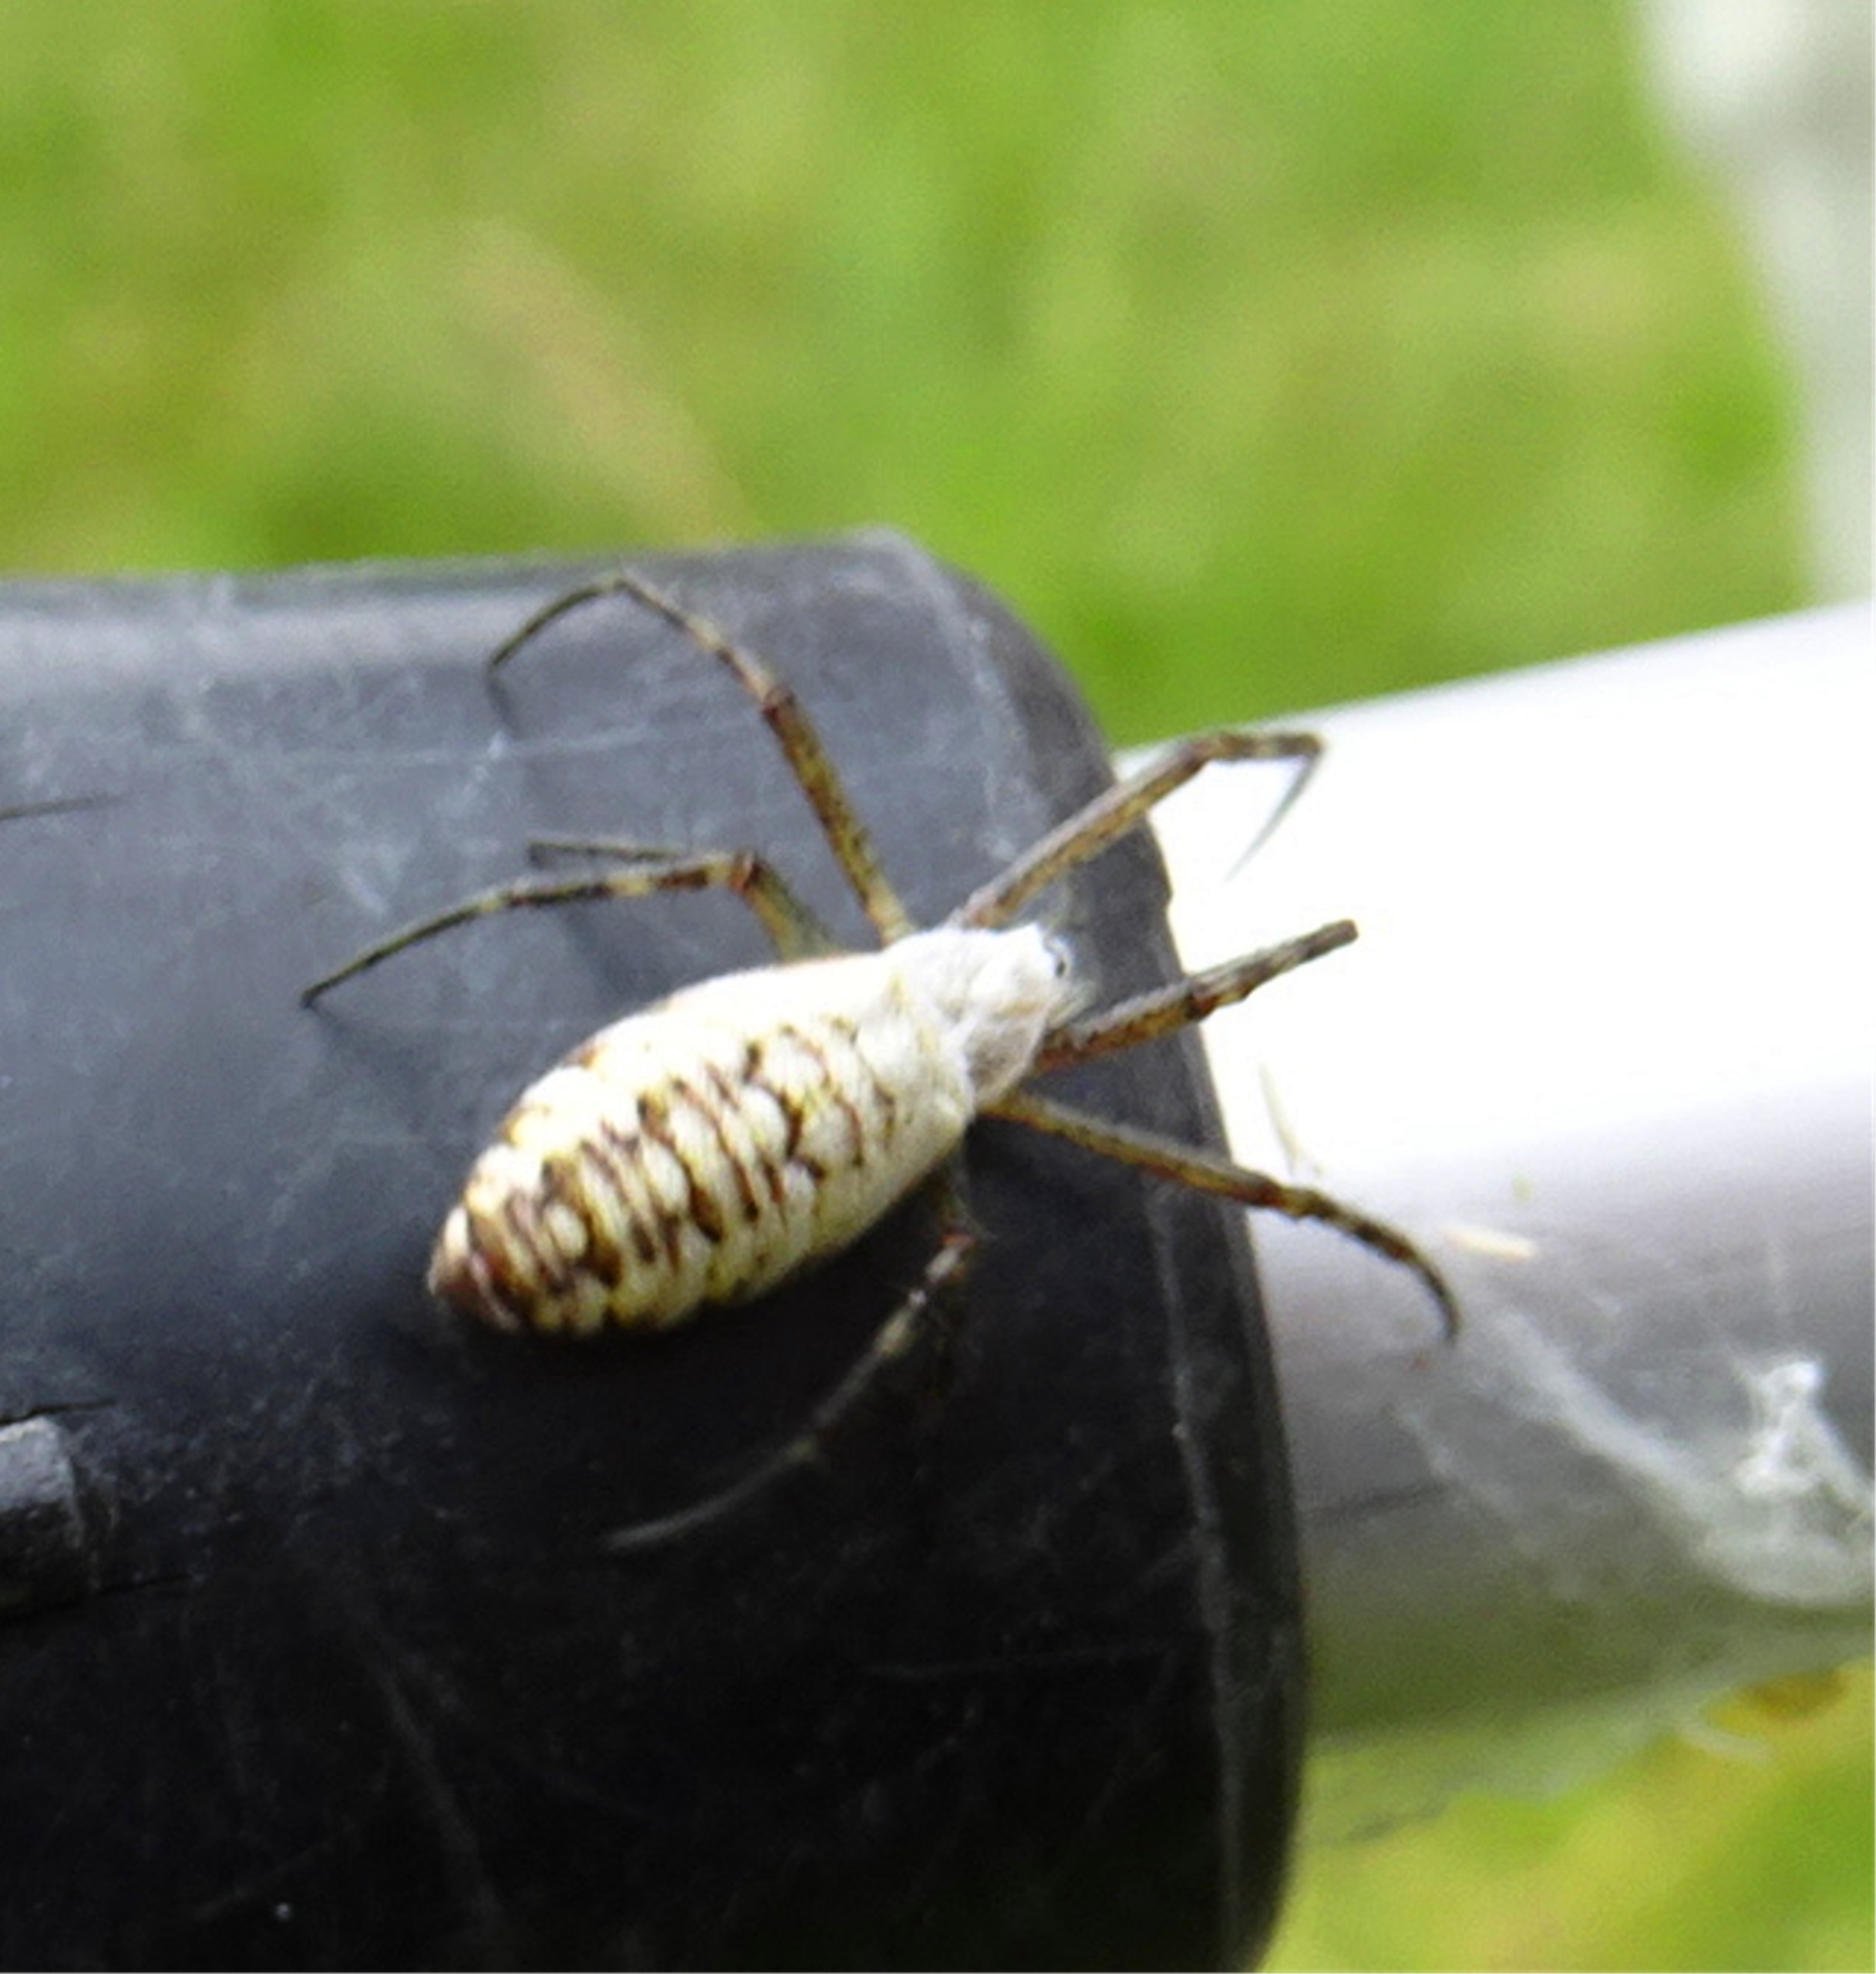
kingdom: Animalia
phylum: Arthropoda
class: Arachnida
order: Araneae
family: Araneidae
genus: Argiope
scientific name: Argiope bruennichi
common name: Hvepseedderkop
